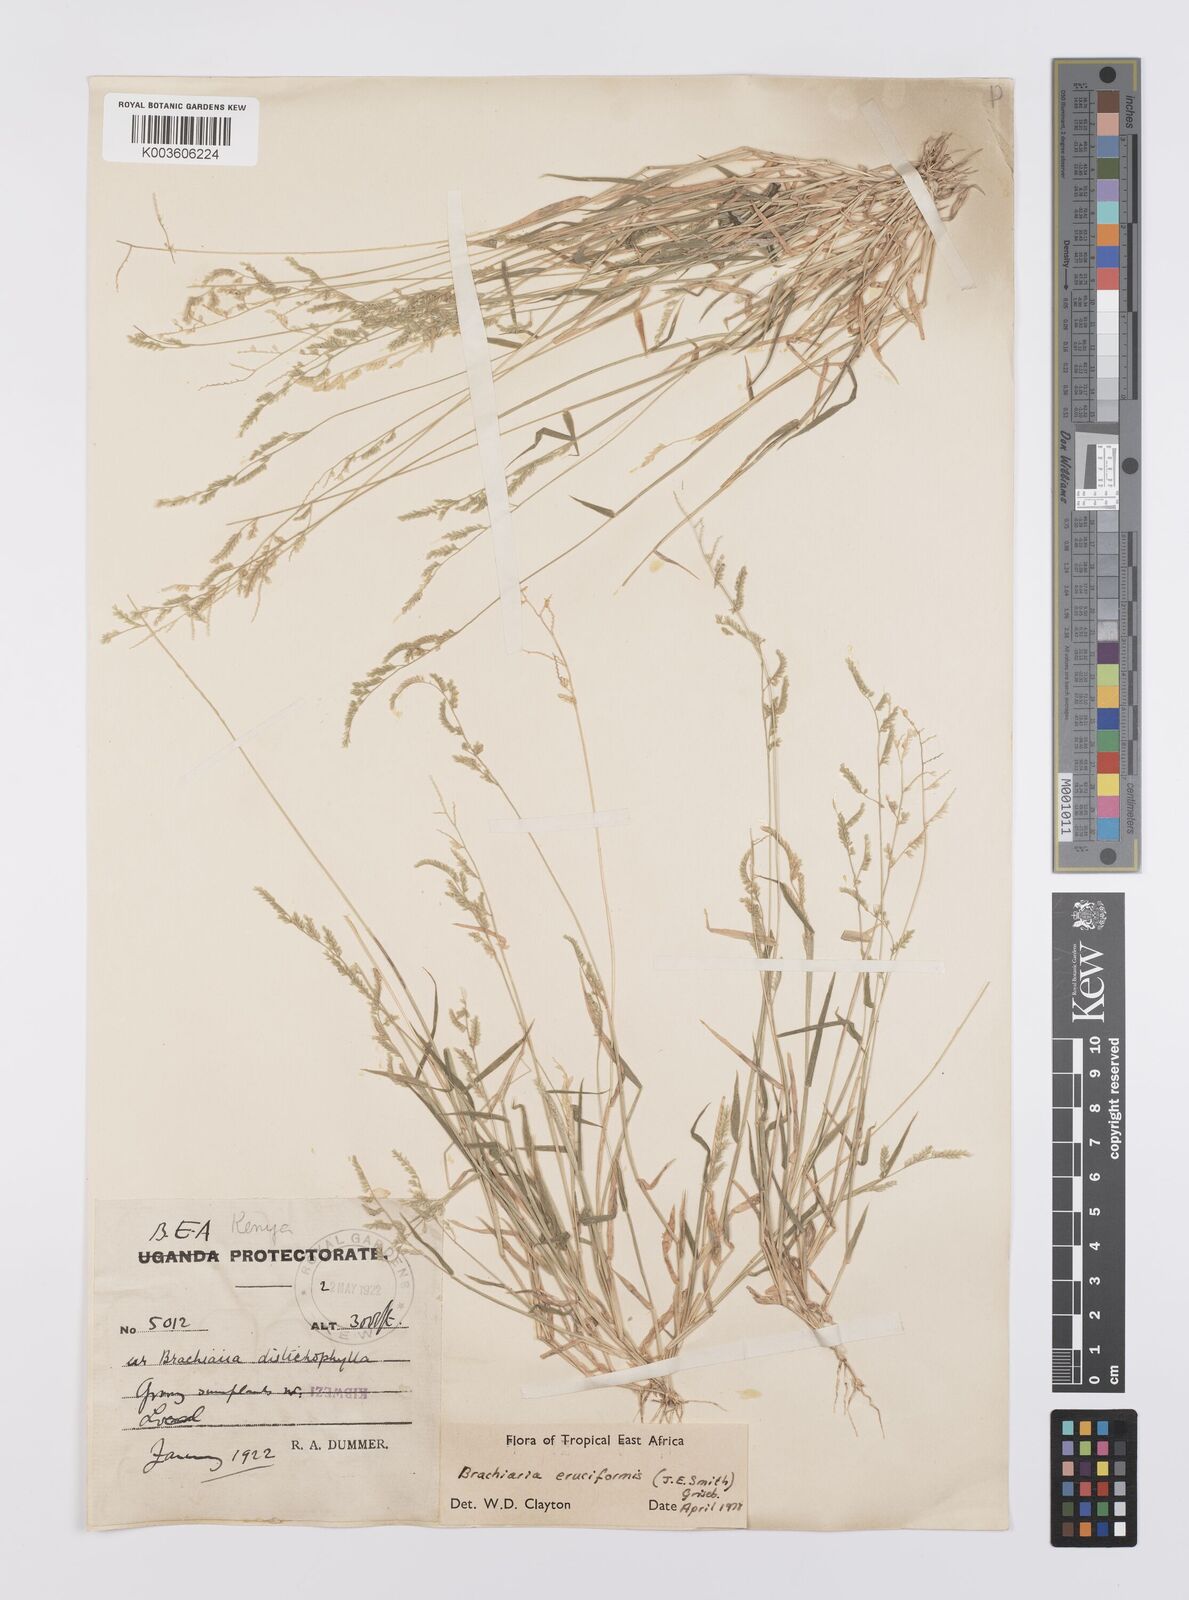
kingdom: Plantae
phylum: Tracheophyta
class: Liliopsida
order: Poales
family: Poaceae
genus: Moorochloa
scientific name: Moorochloa eruciformis
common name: Sweet signalgrass
